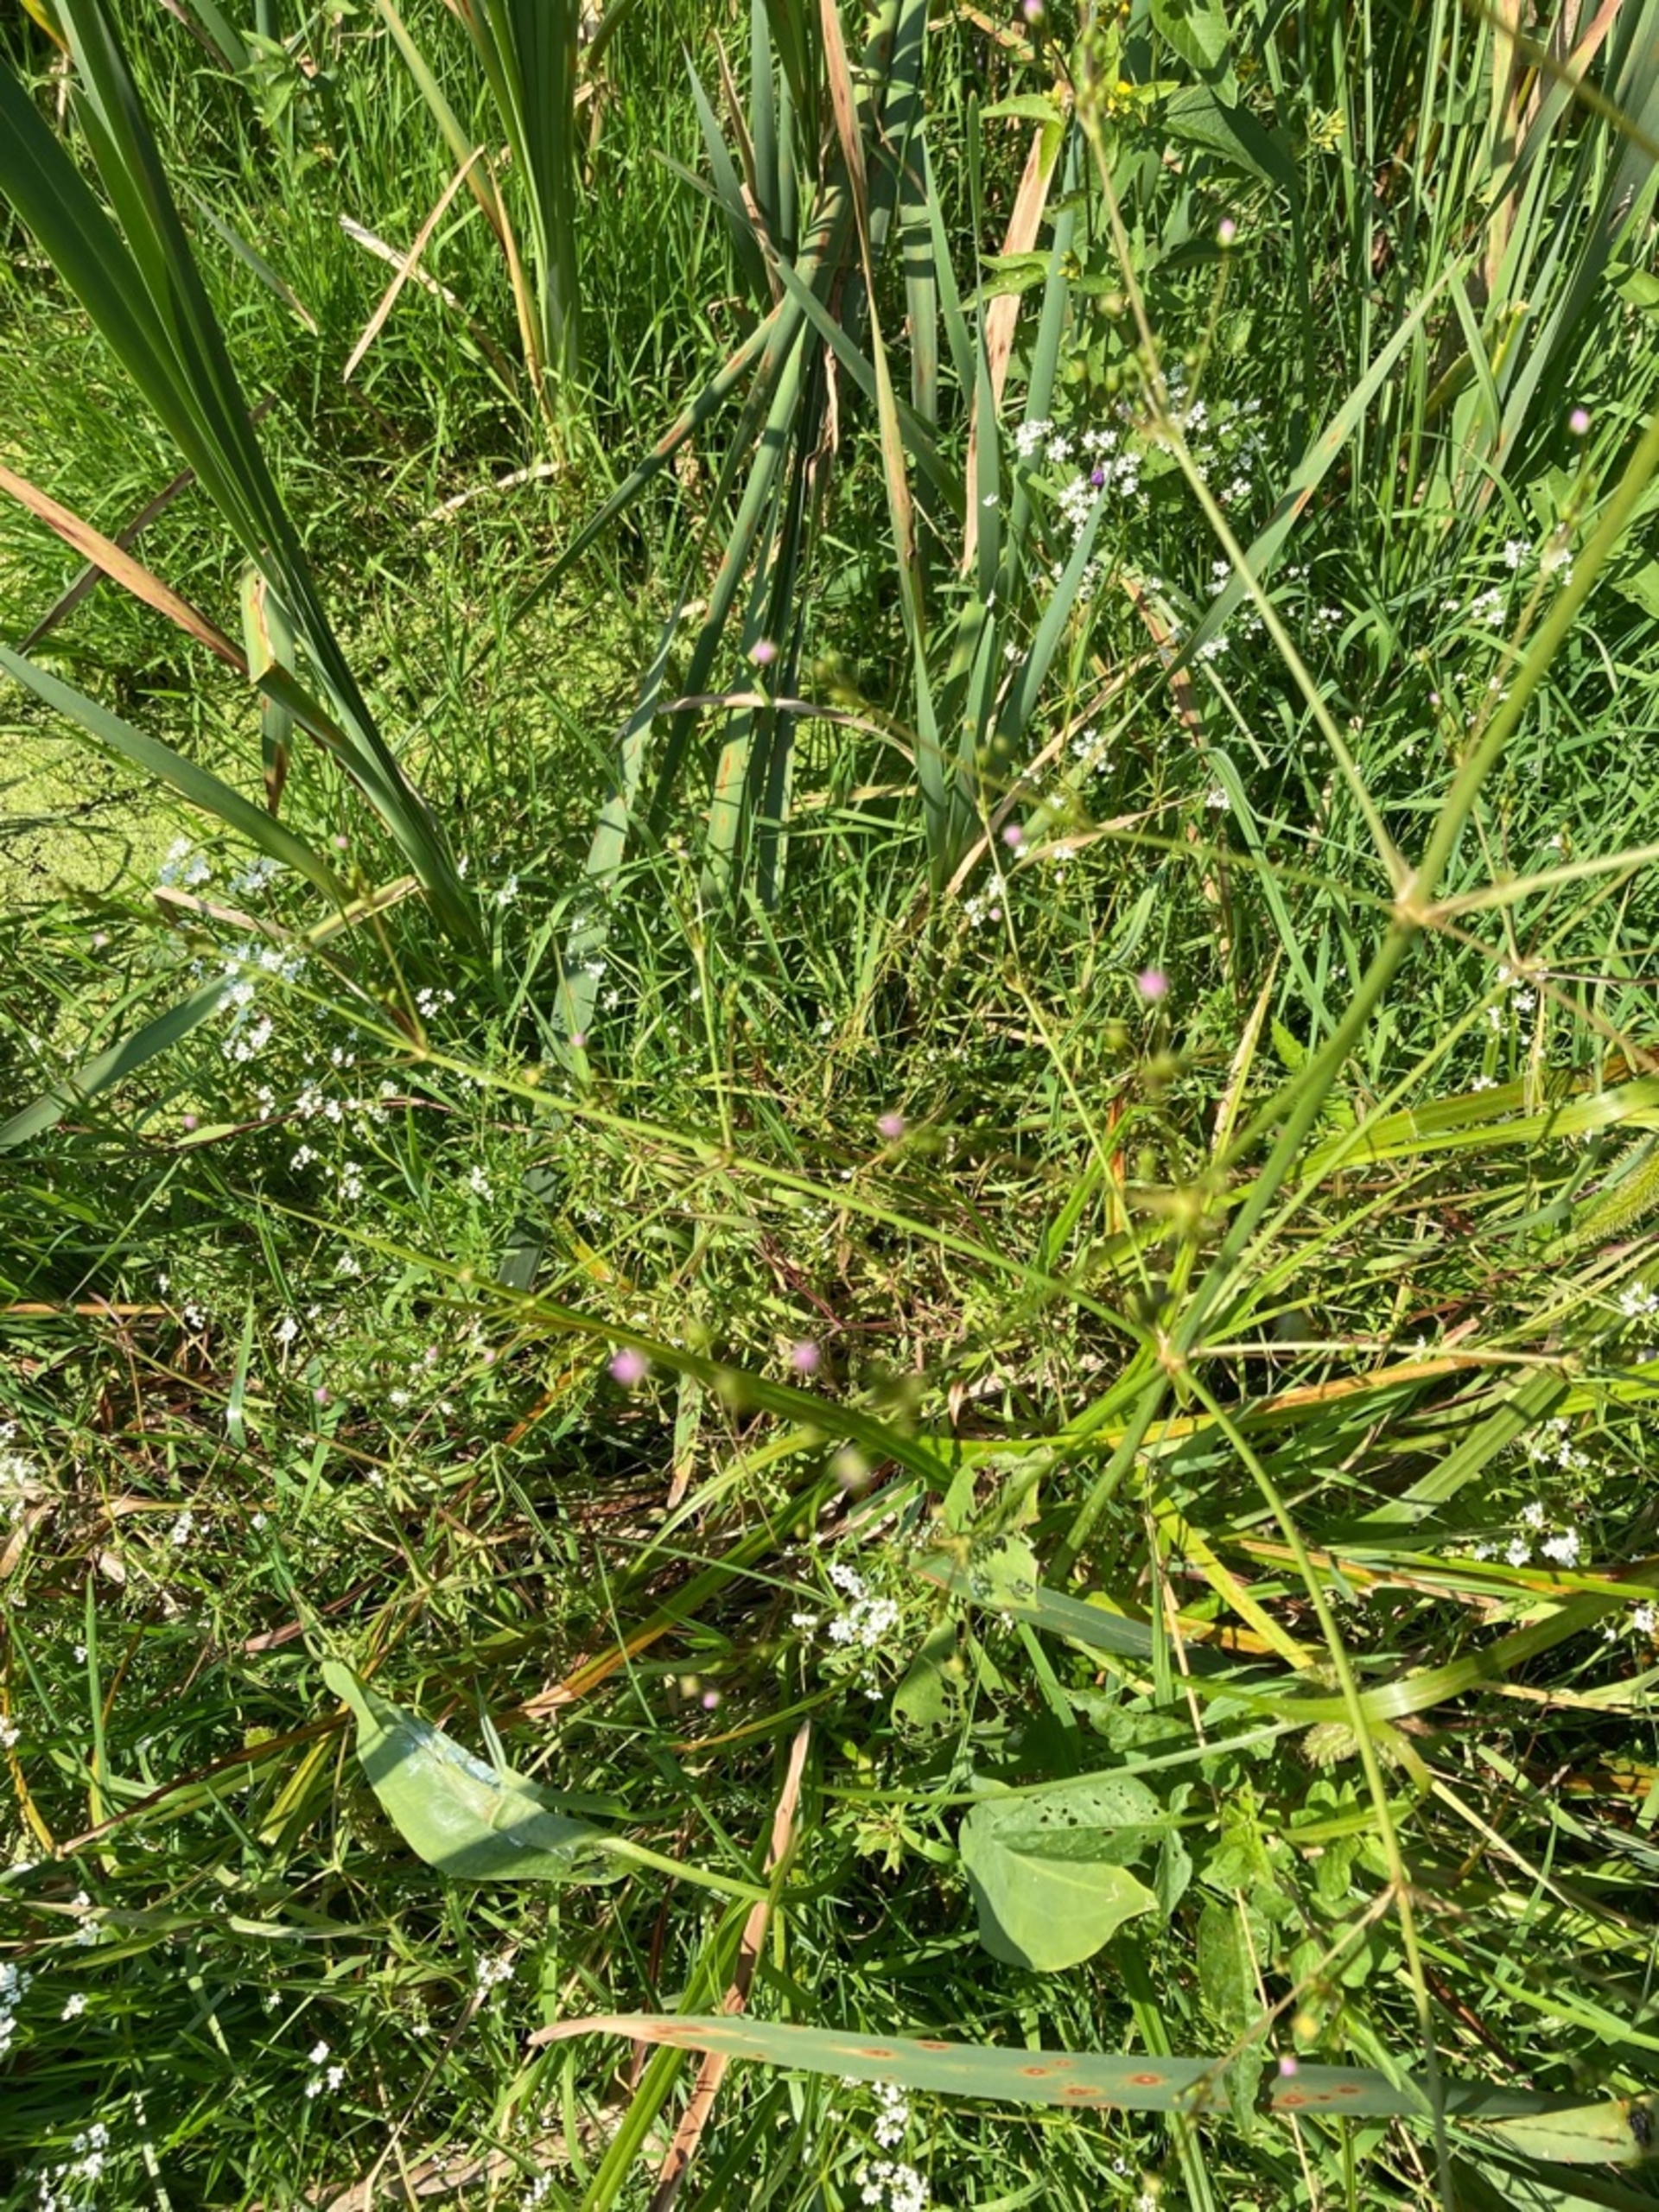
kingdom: Plantae
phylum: Tracheophyta
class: Liliopsida
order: Alismatales
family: Alismataceae
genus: Alisma
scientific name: Alisma plantago-aquatica
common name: Vejbred-skeblad
